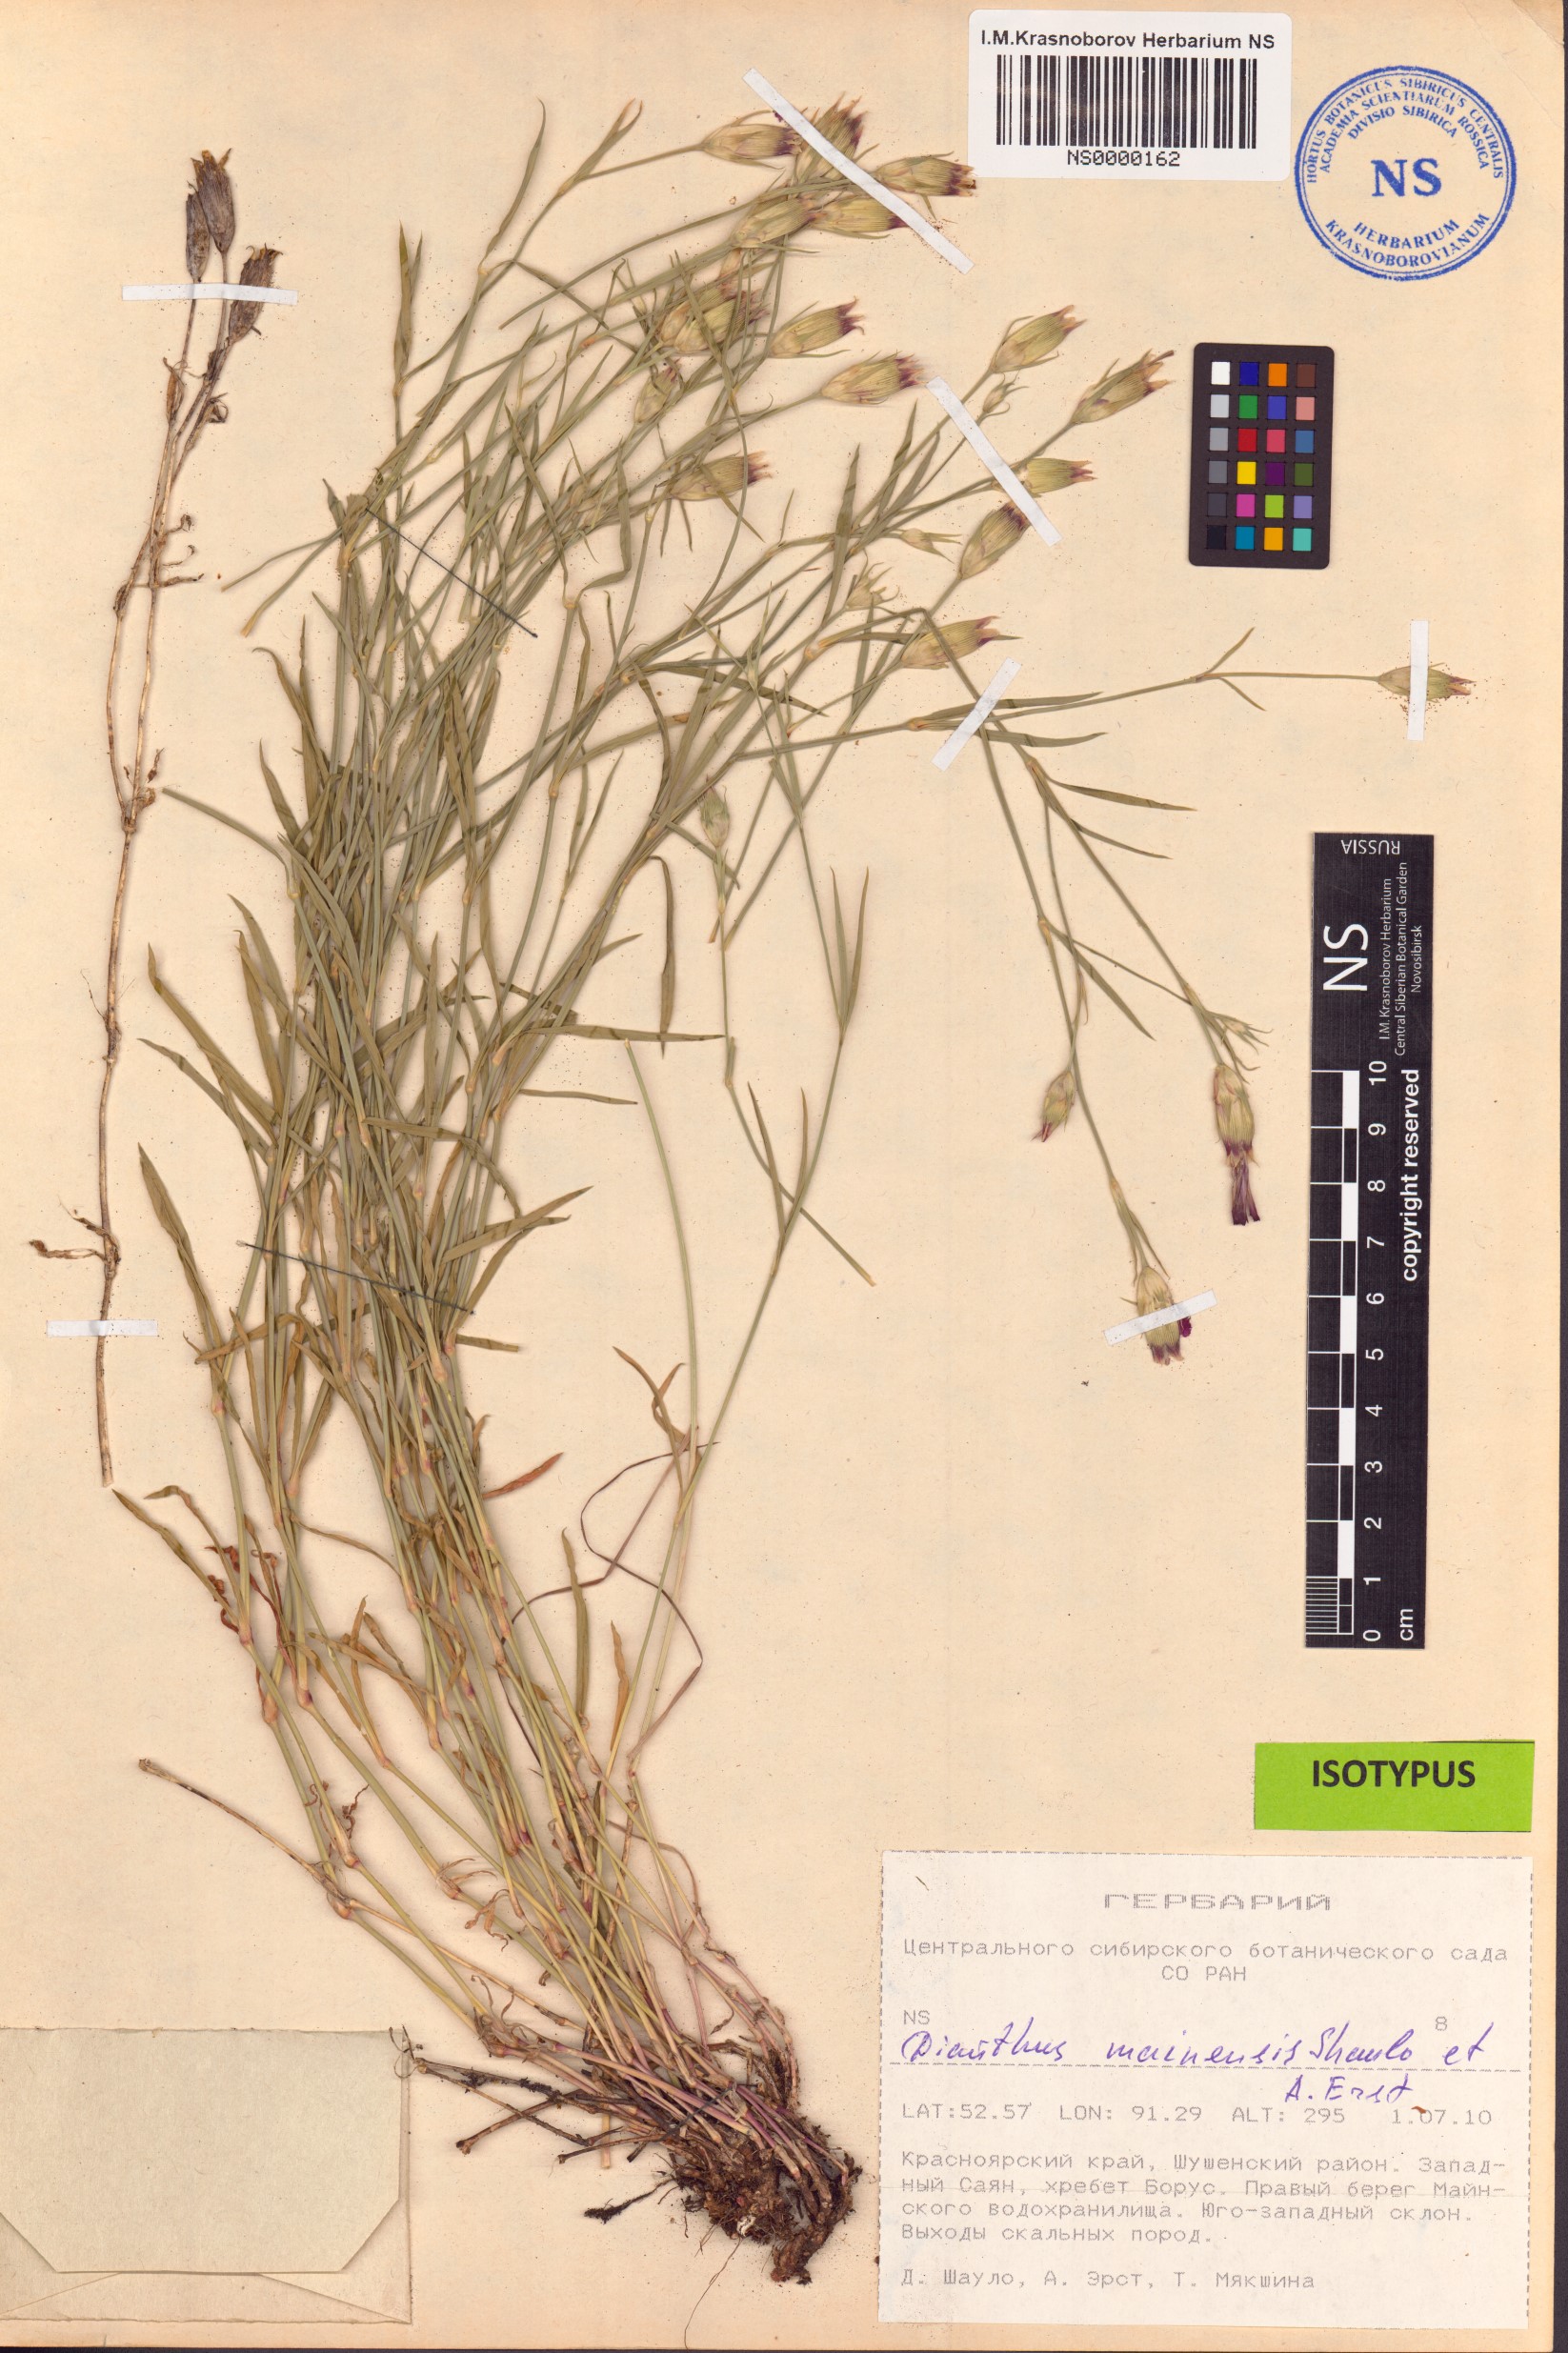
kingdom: Plantae
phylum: Tracheophyta
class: Magnoliopsida
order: Caryophyllales
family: Caryophyllaceae
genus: Dianthus
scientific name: Dianthus mainensis
